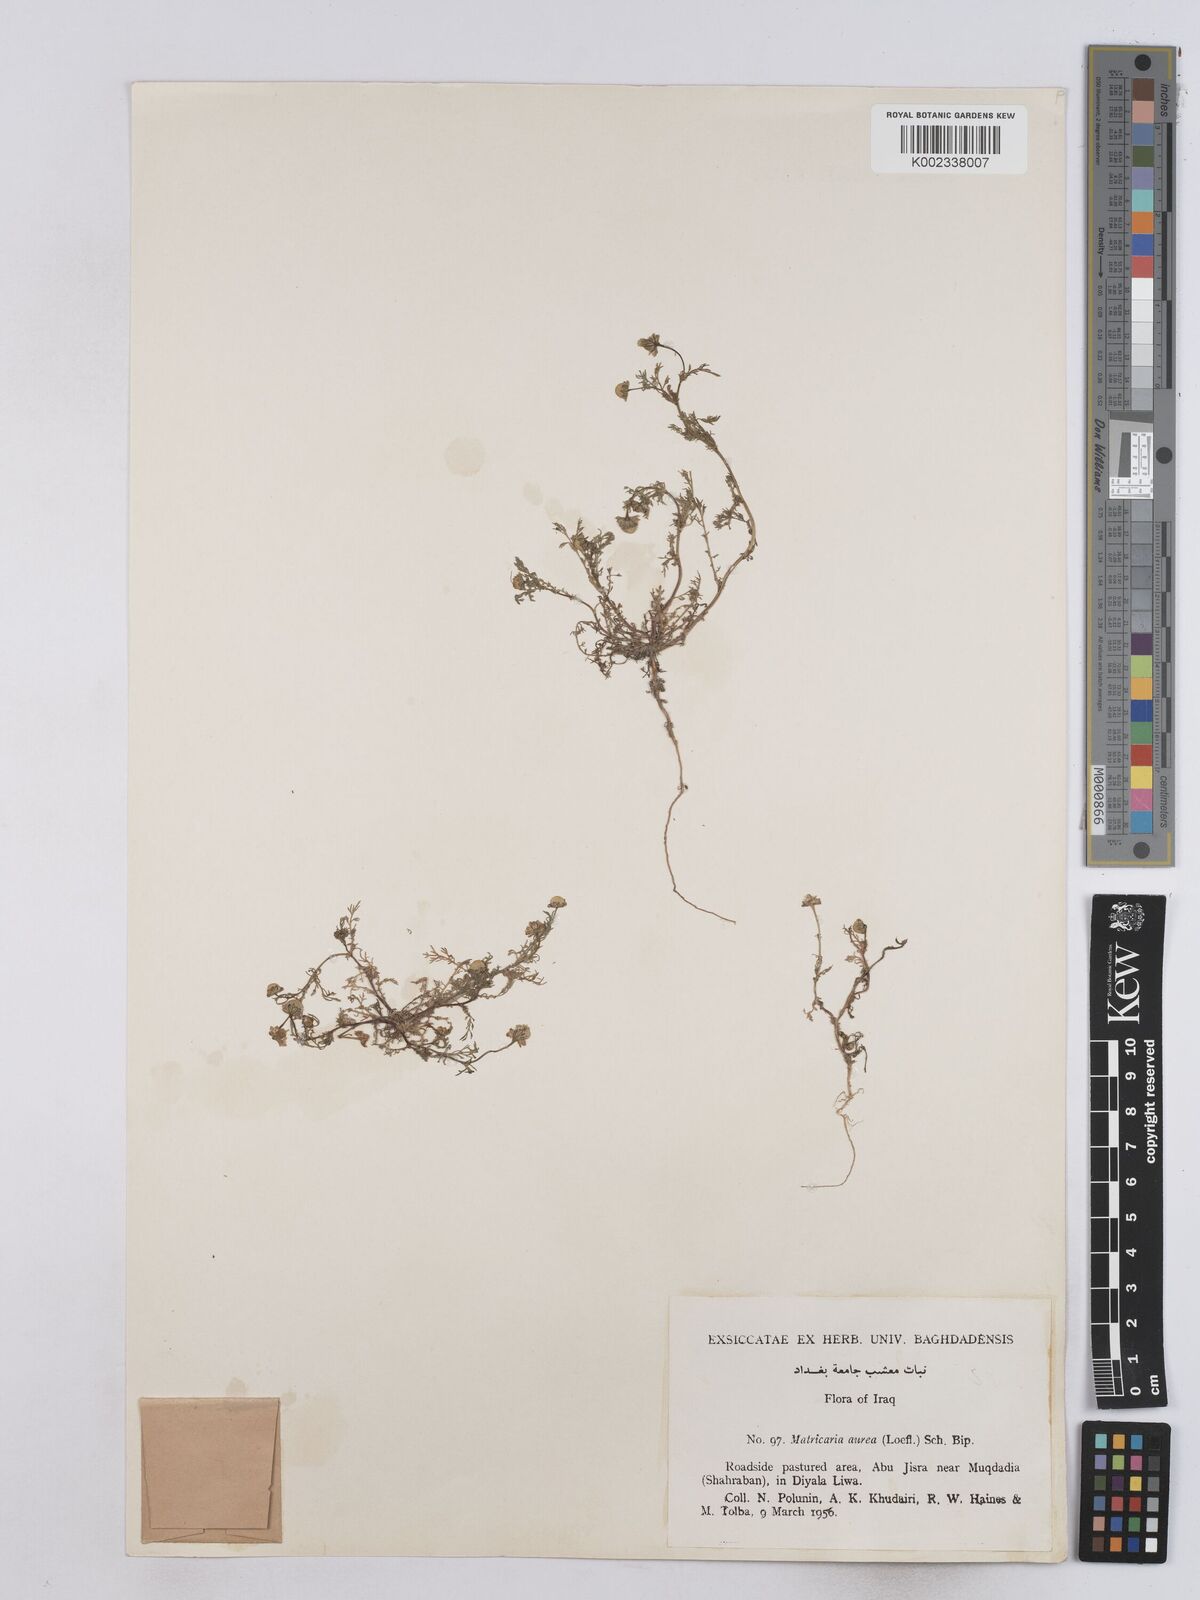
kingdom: Plantae
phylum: Tracheophyta
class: Magnoliopsida
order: Asterales
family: Asteraceae
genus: Matricaria
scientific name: Matricaria aurea
